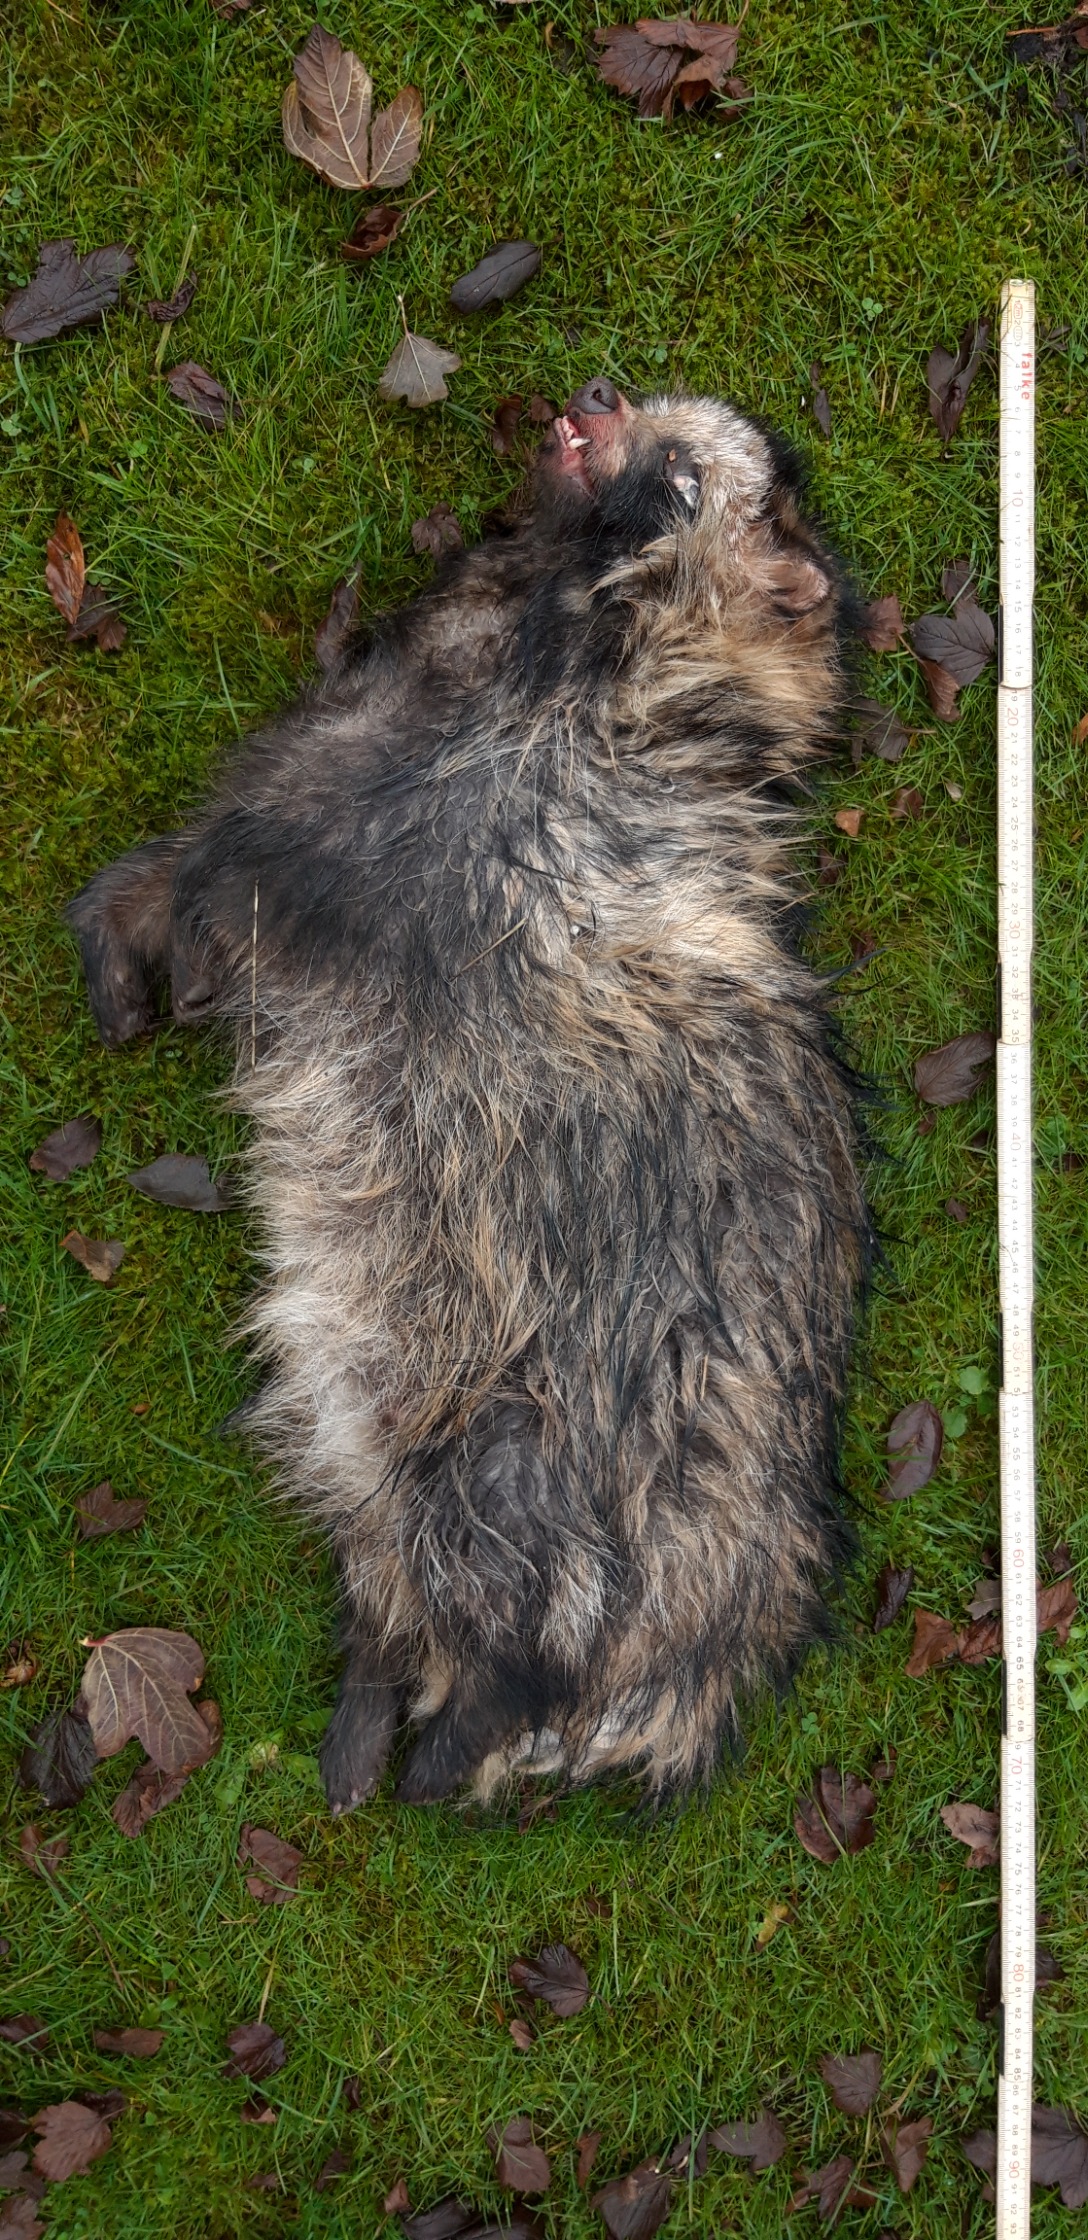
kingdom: Animalia
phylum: Chordata
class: Mammalia
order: Carnivora
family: Canidae
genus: Nyctereutes
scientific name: Nyctereutes procyonoides
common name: Mårhund
